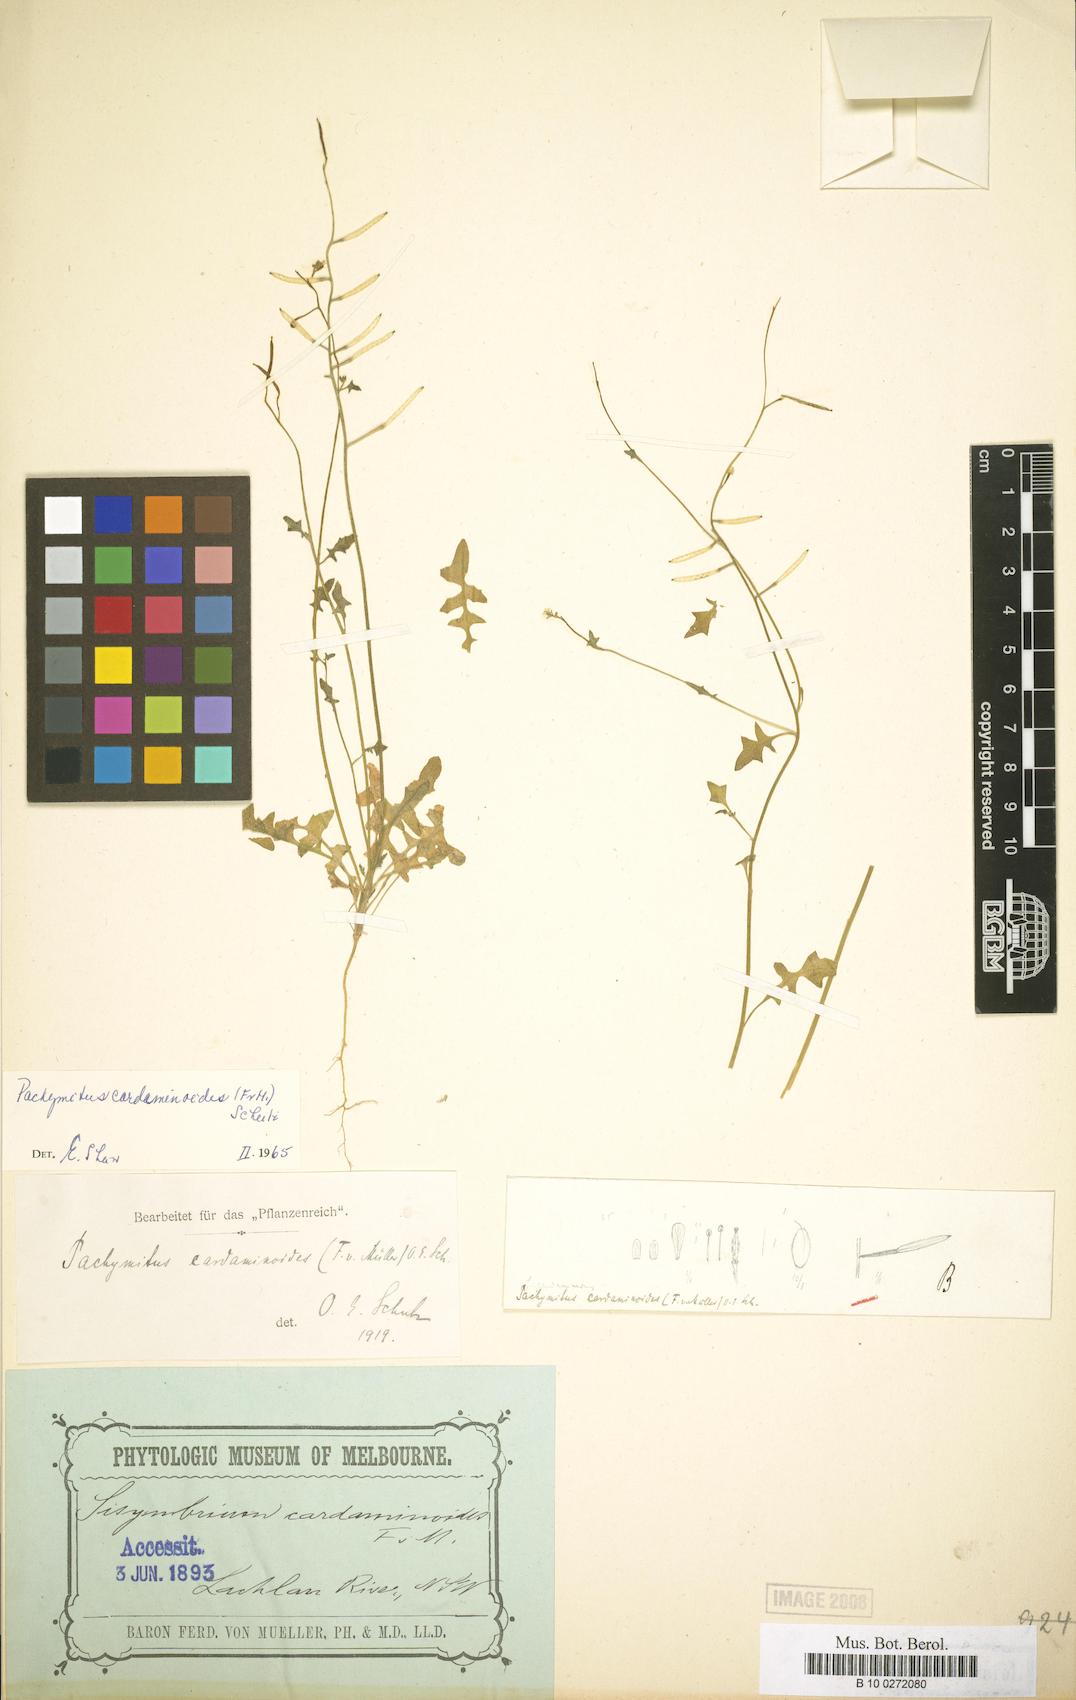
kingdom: Plantae
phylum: Tracheophyta
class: Magnoliopsida
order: Brassicales
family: Brassicaceae
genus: Pachymitus
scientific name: Pachymitus cardaminoides
